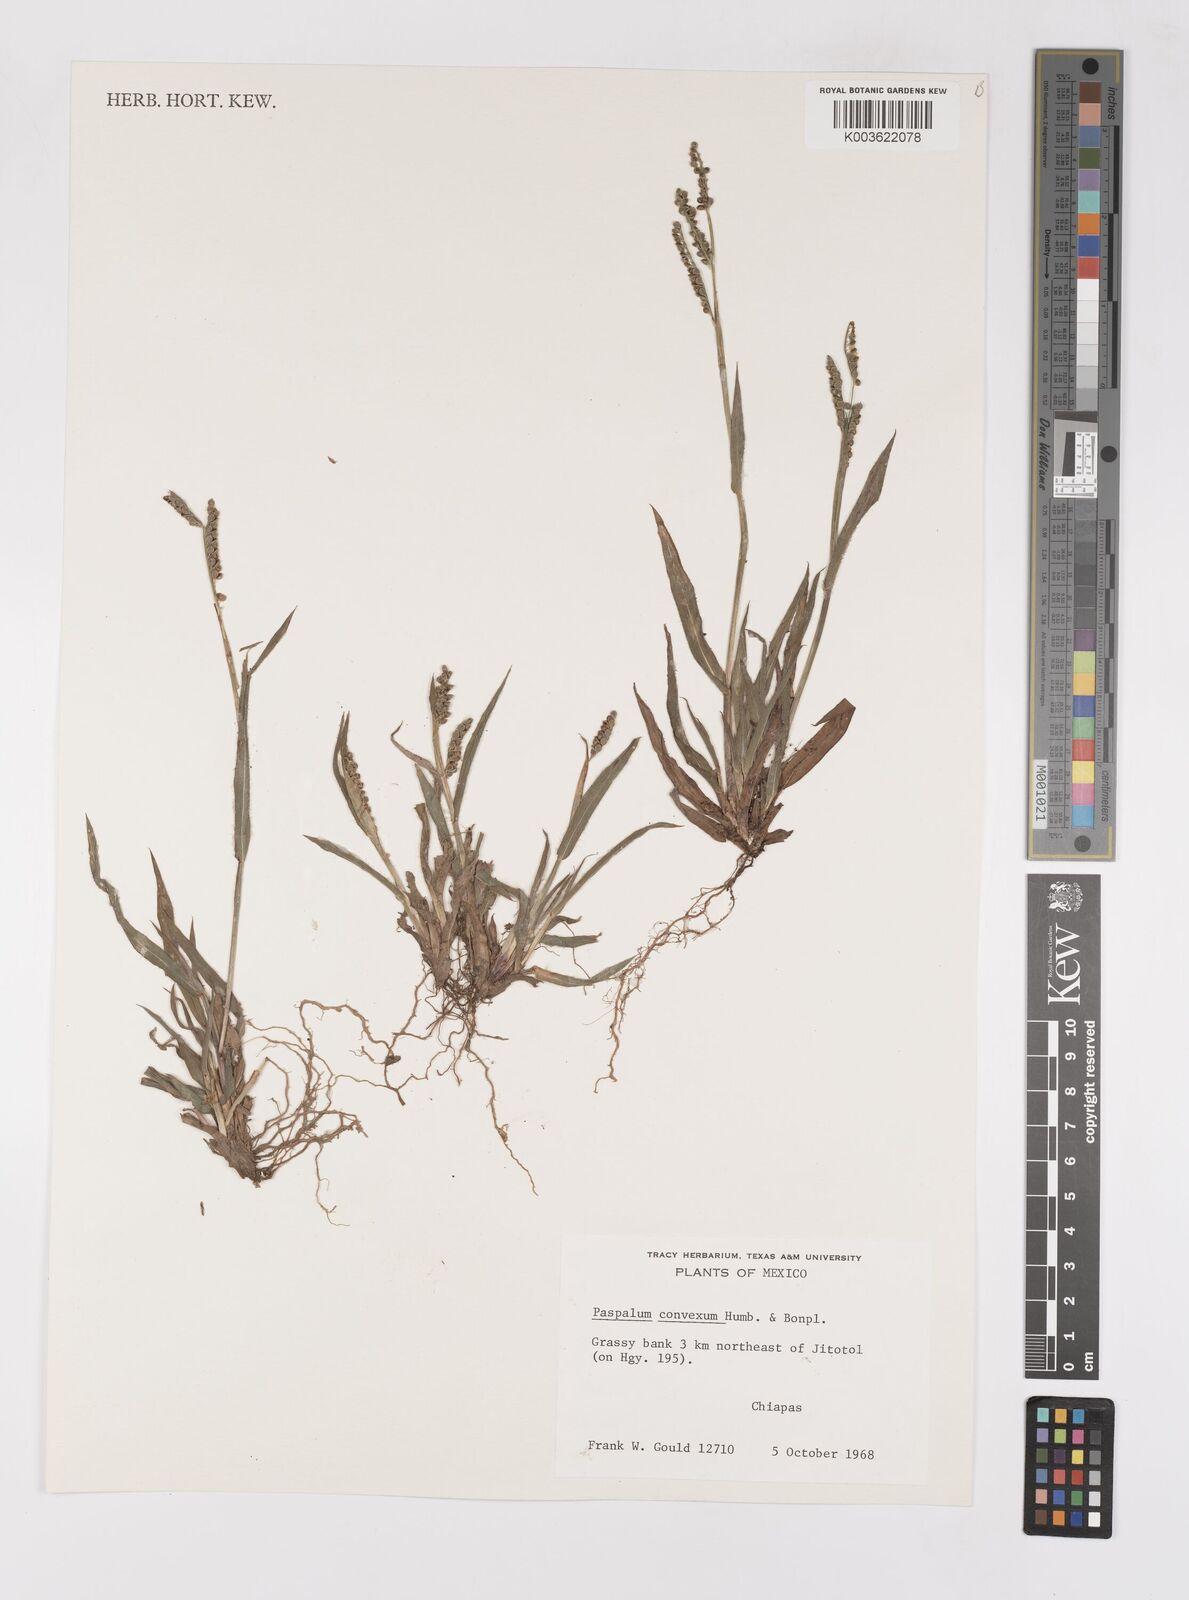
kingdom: Plantae
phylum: Tracheophyta
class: Liliopsida
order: Poales
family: Poaceae
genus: Paspalum
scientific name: Paspalum convexum
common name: Latin american crowngrass
